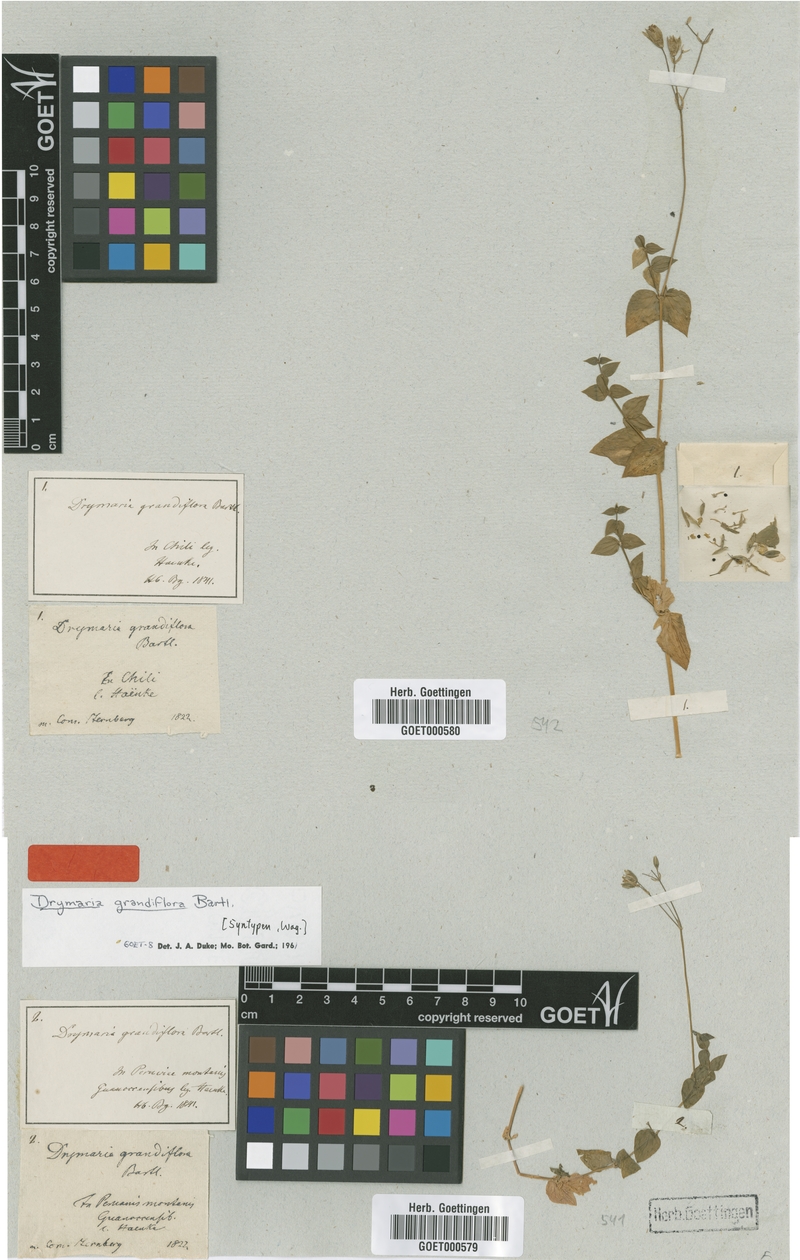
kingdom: Plantae
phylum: Tracheophyta
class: Magnoliopsida
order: Caryophyllales
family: Caryophyllaceae
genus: Drymaria
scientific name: Drymaria grandiflora
